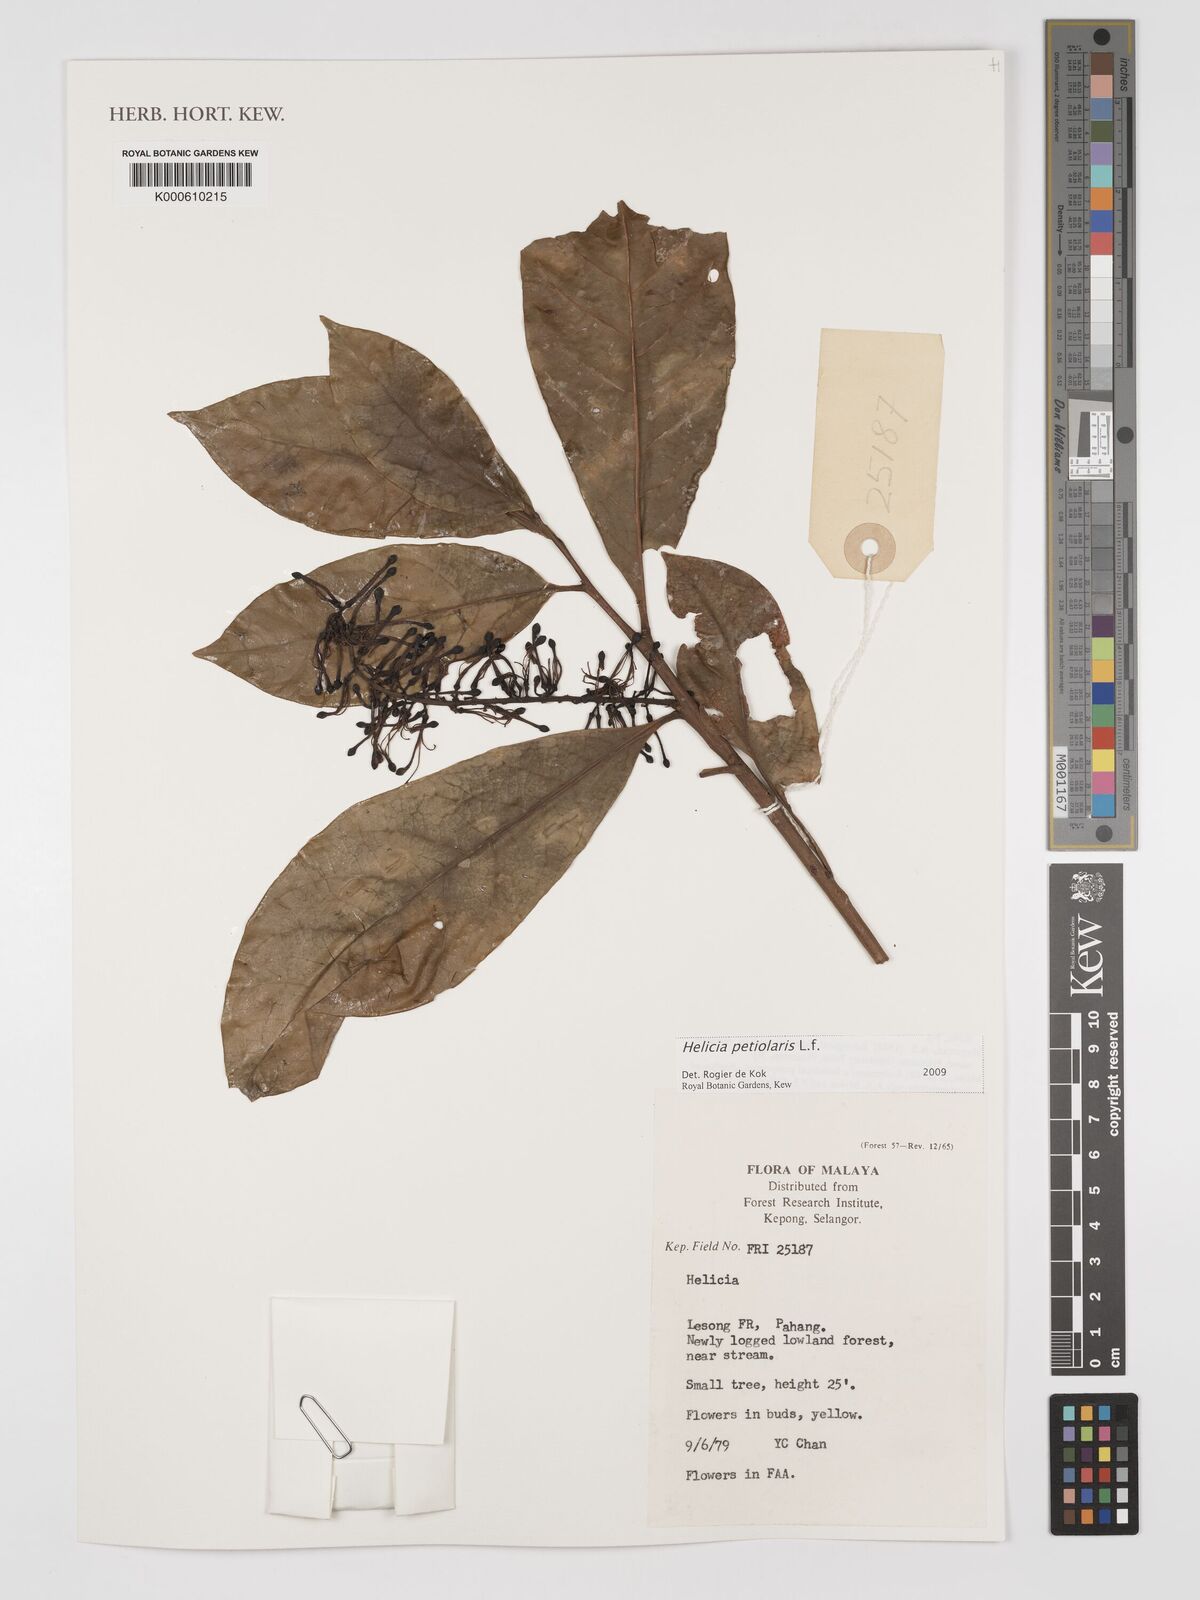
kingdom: Plantae
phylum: Tracheophyta
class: Magnoliopsida
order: Proteales
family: Proteaceae
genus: Helicia
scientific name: Helicia petiolaris
